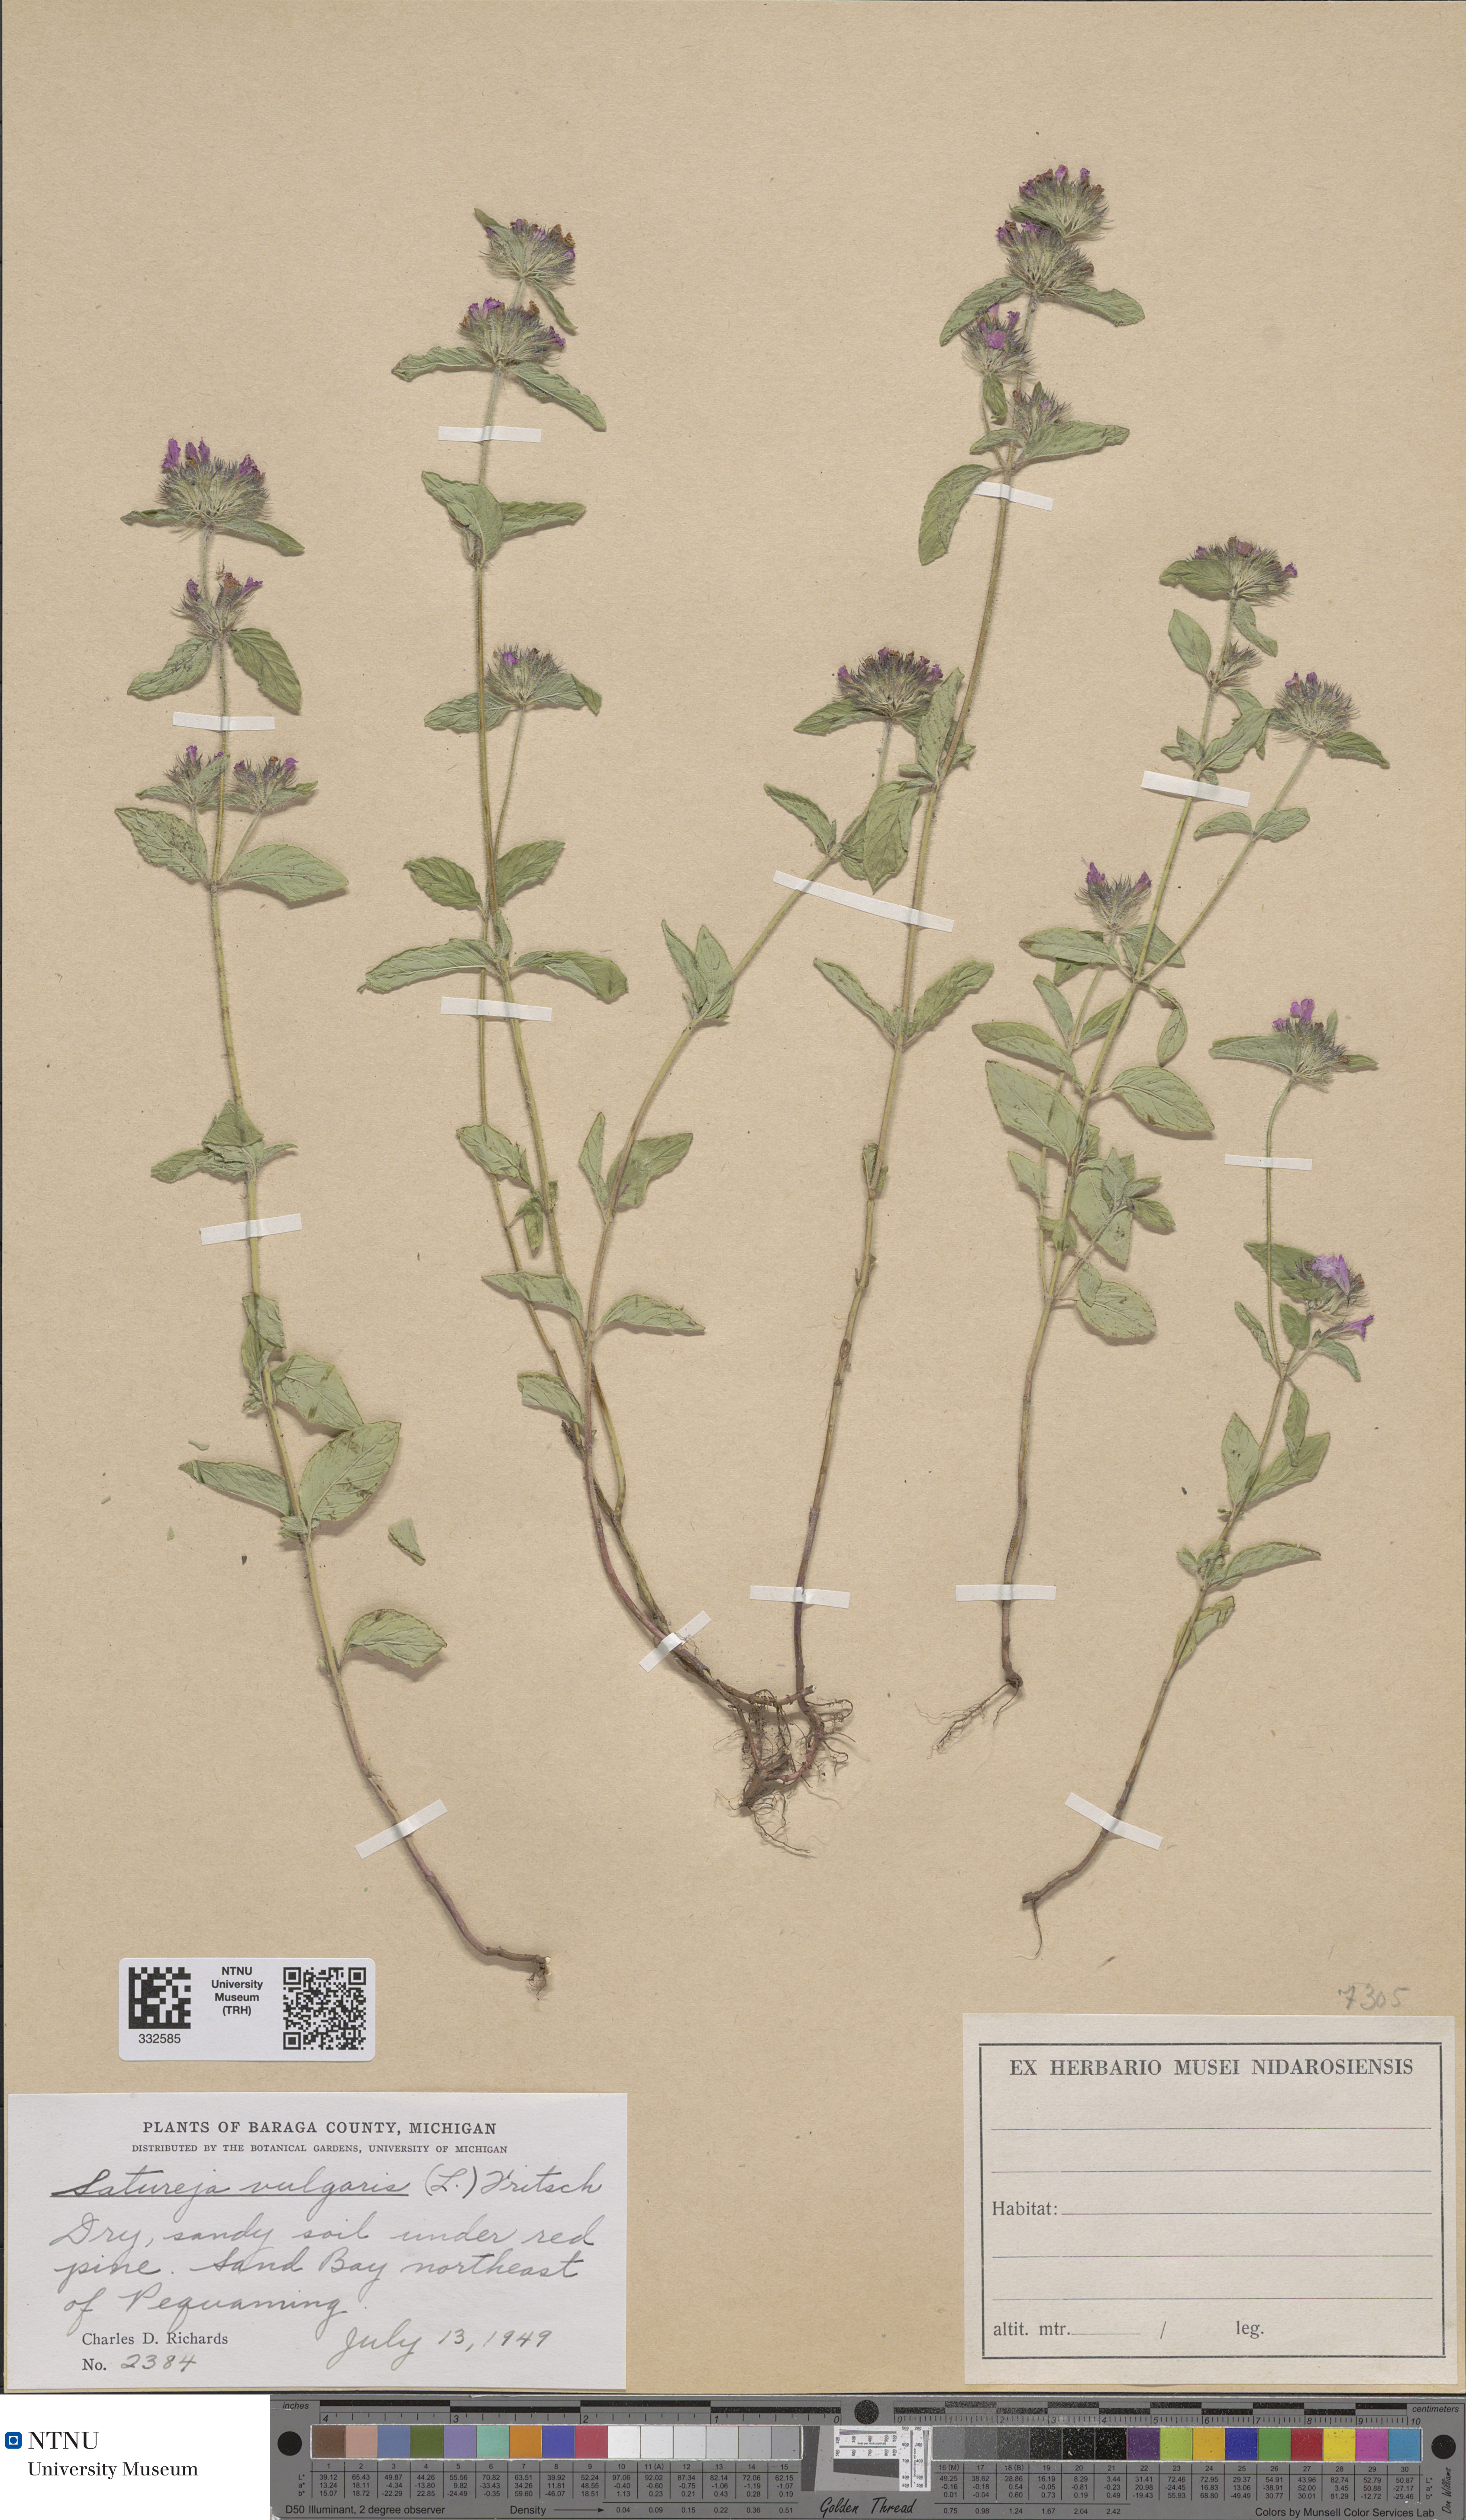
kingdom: Plantae
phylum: Tracheophyta
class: Magnoliopsida
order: Lamiales
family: Lamiaceae
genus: Clinopodium
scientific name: Clinopodium vulgare
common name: Wild basil
